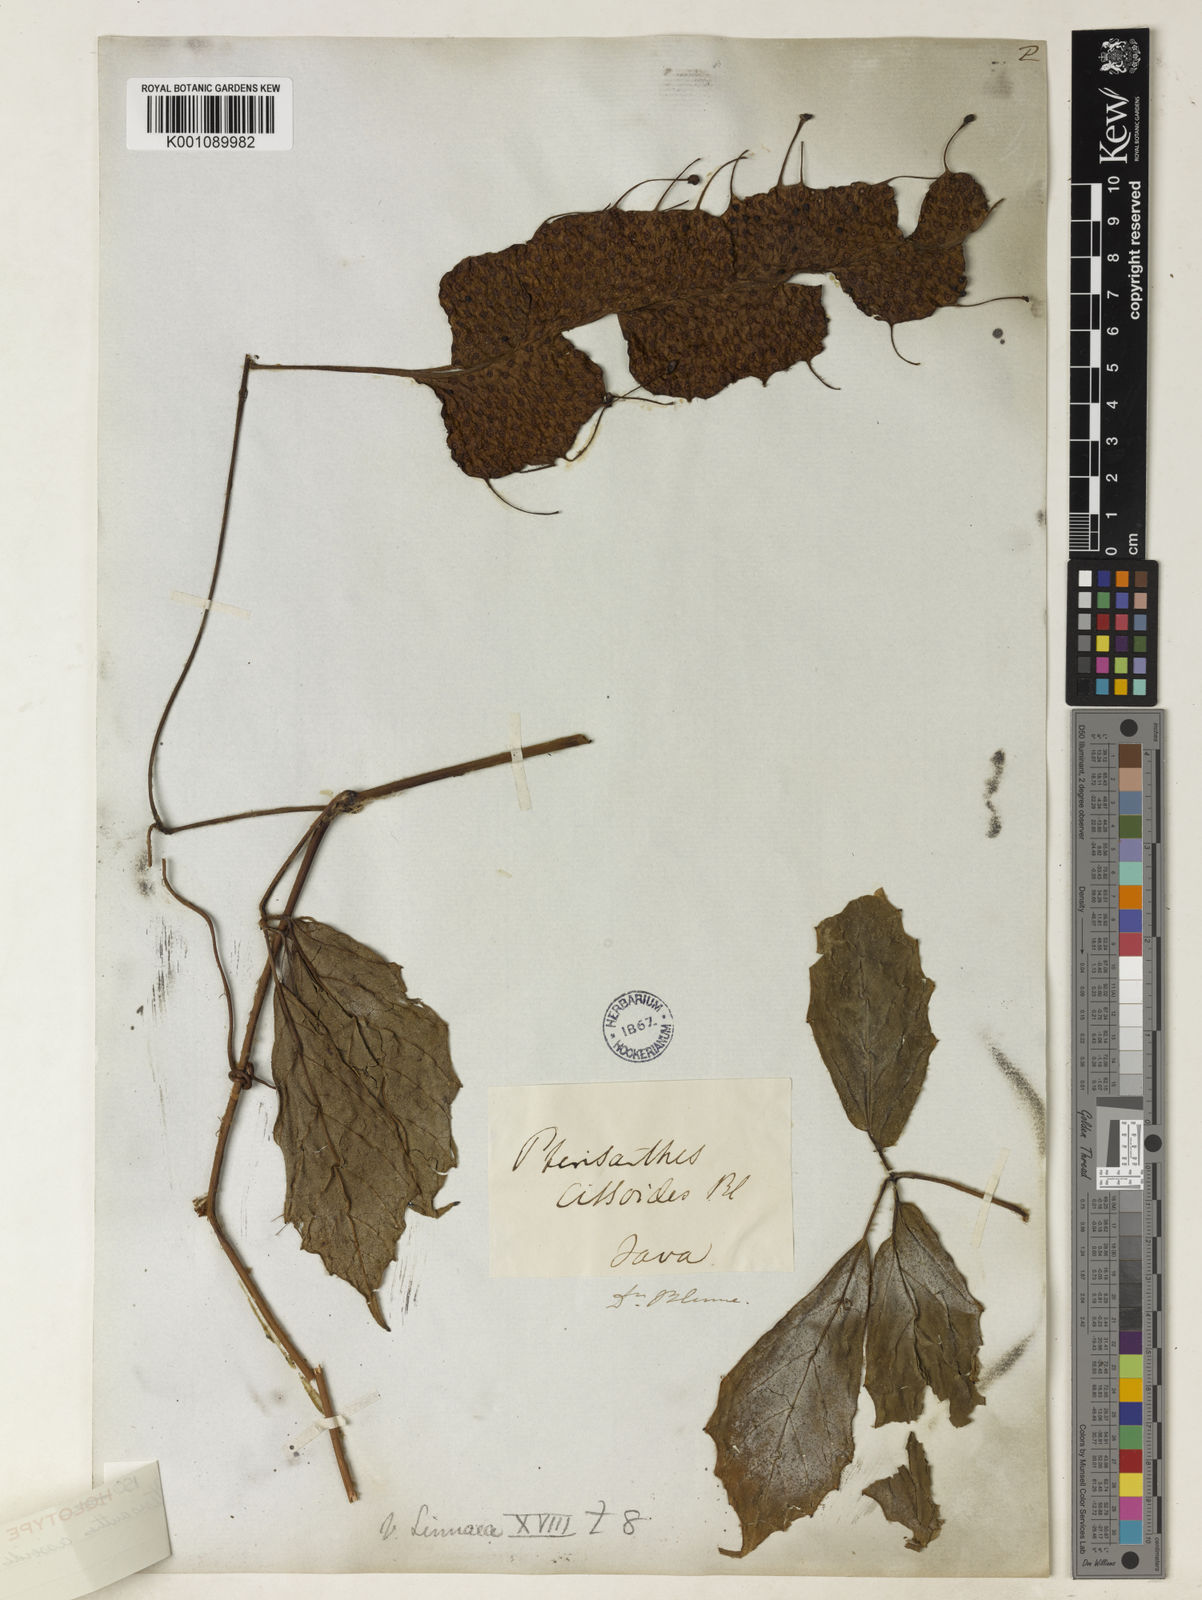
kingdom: Plantae
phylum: Tracheophyta
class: Magnoliopsida
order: Vitales
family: Vitaceae
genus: Cyphostemma
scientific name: Cyphostemma cryptoglandulosum
